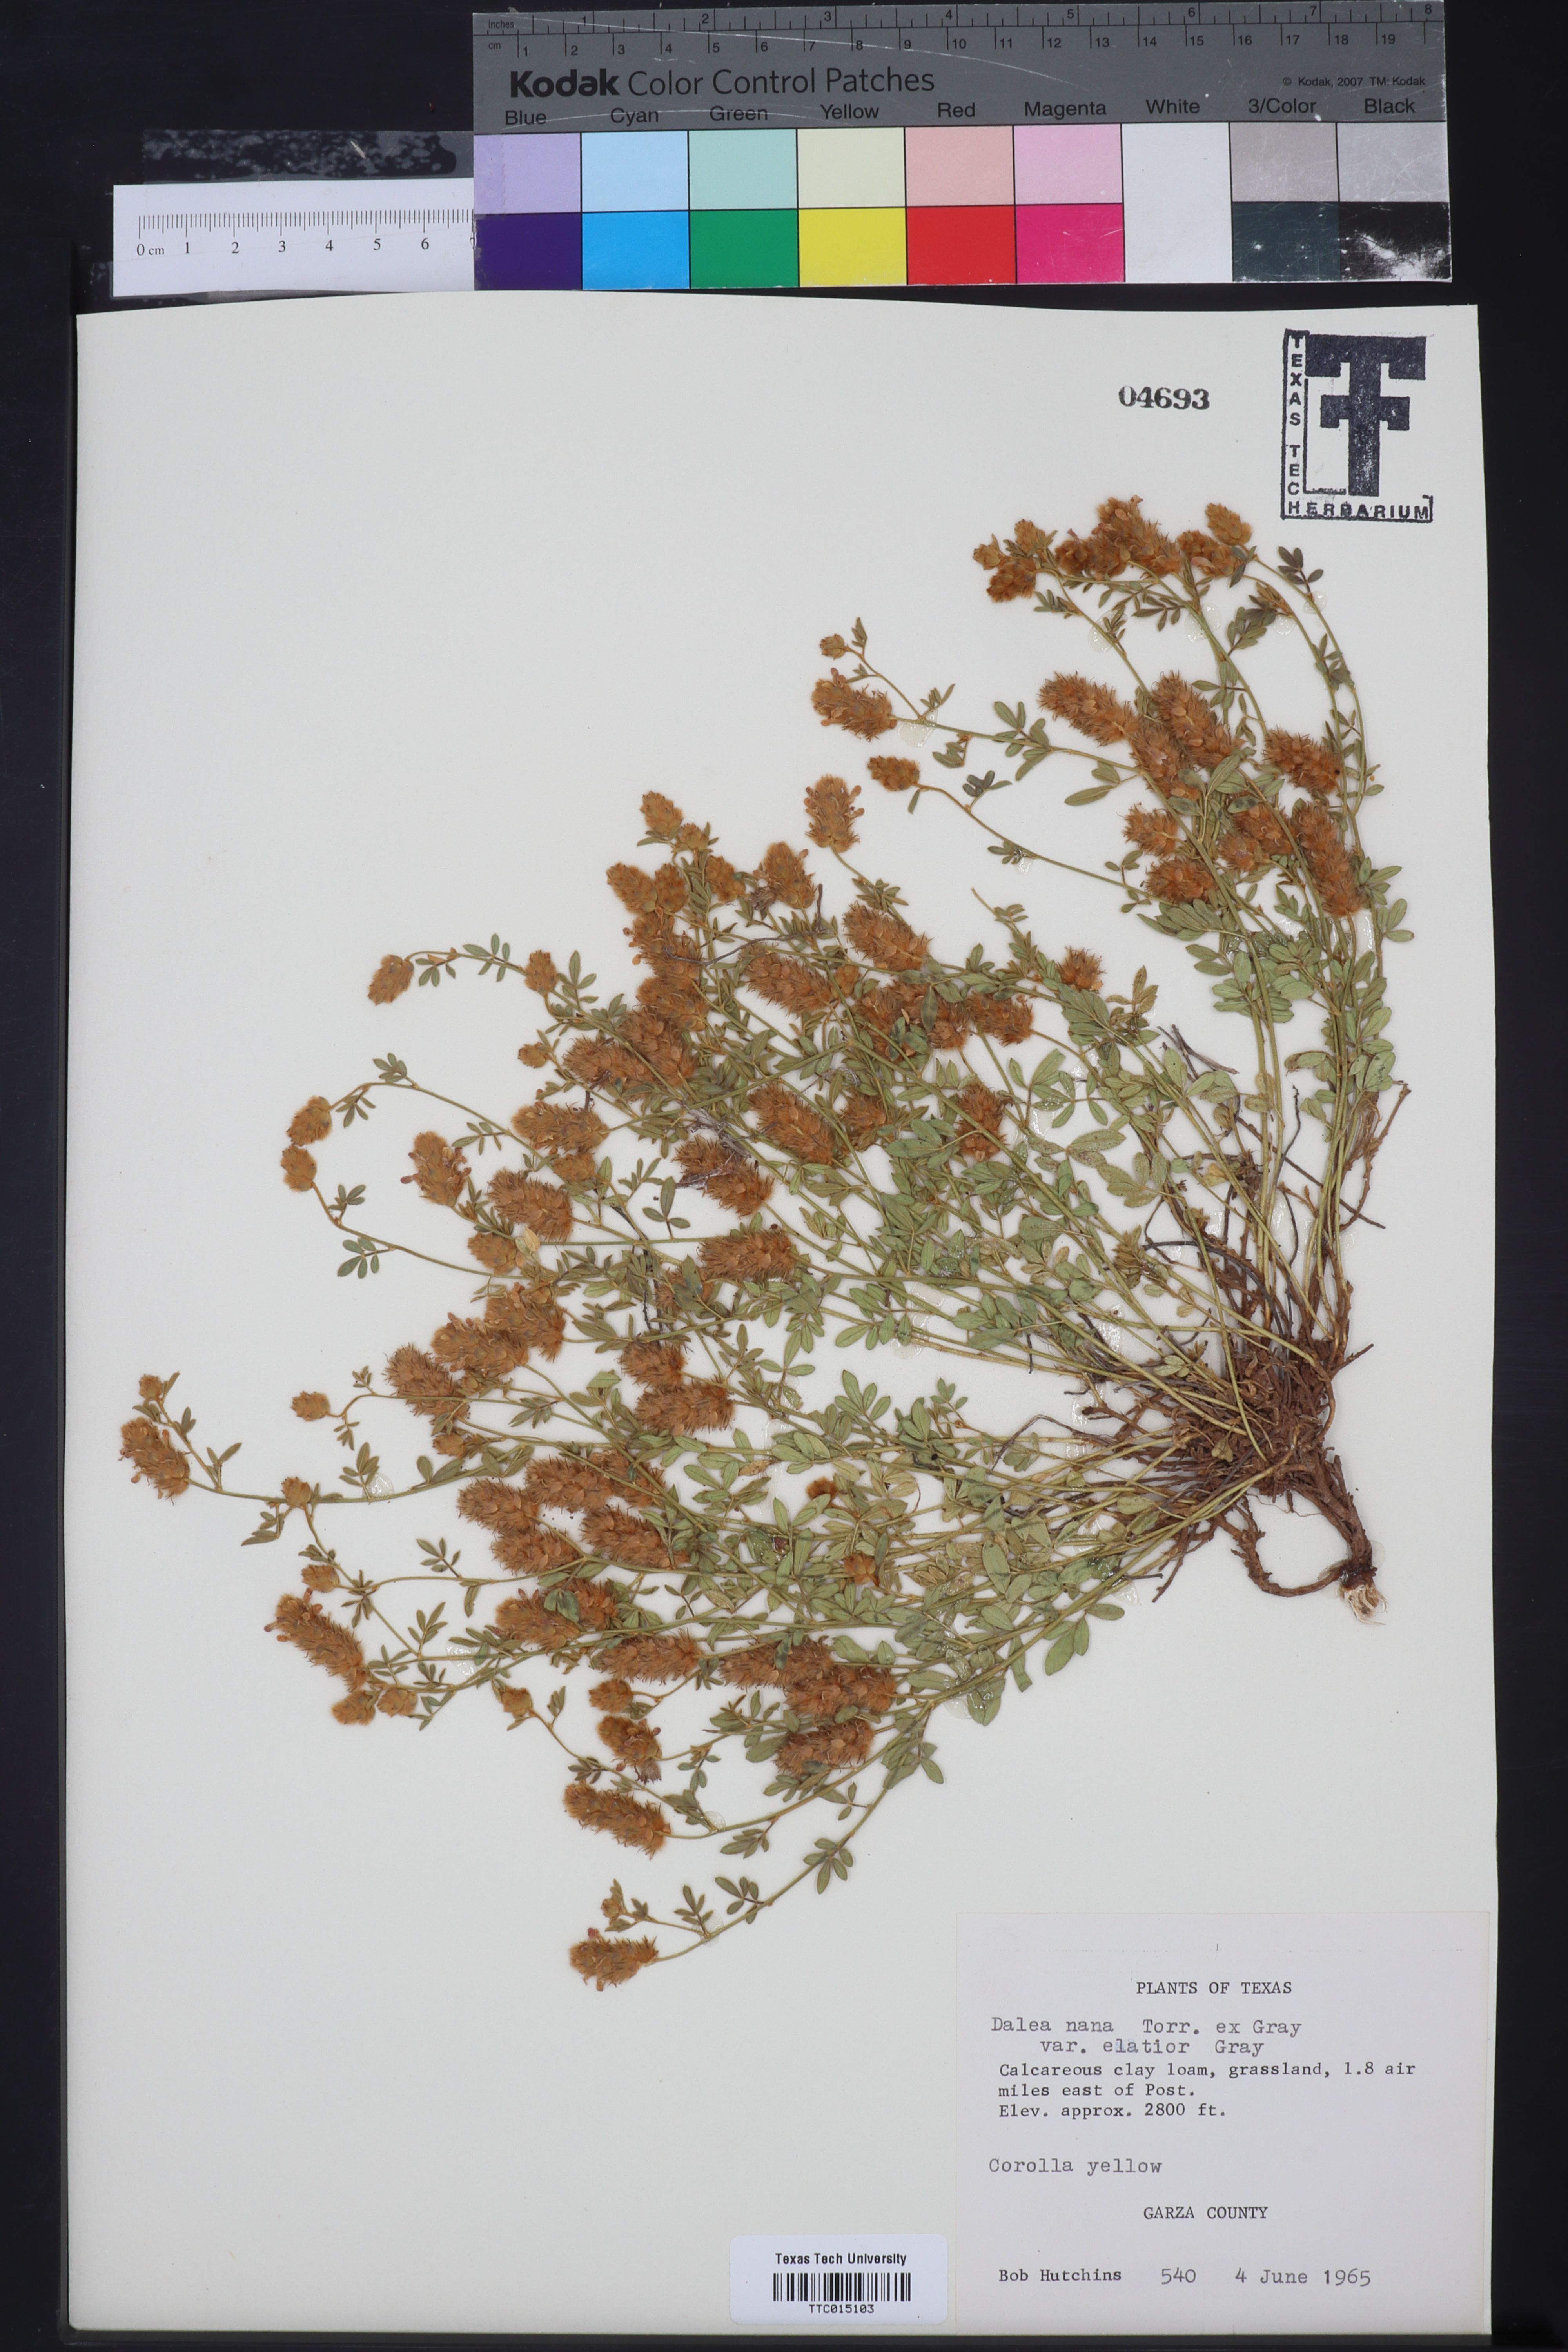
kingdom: Plantae
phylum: Tracheophyta
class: Magnoliopsida
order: Fabales
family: Fabaceae
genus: Dalea
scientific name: Dalea nana
